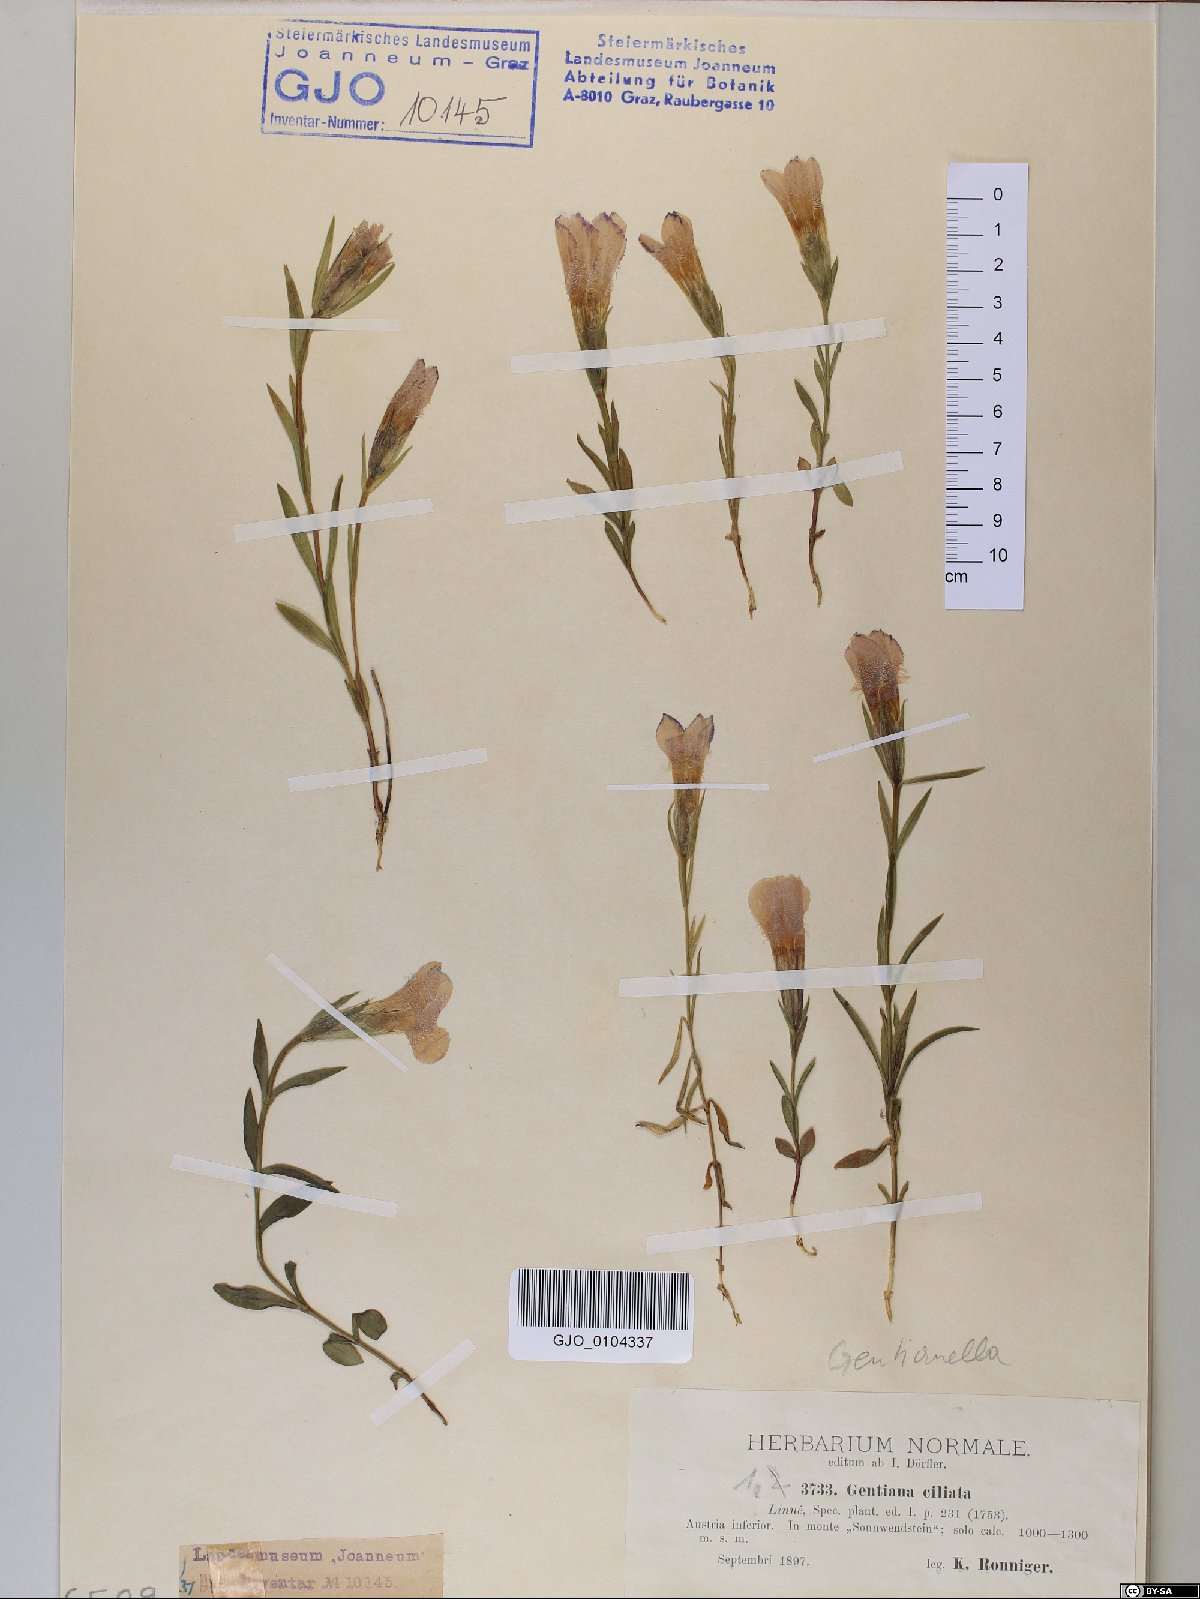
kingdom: Plantae
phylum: Tracheophyta
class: Magnoliopsida
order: Gentianales
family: Gentianaceae
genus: Gentianopsis
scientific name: Gentianopsis ciliata
